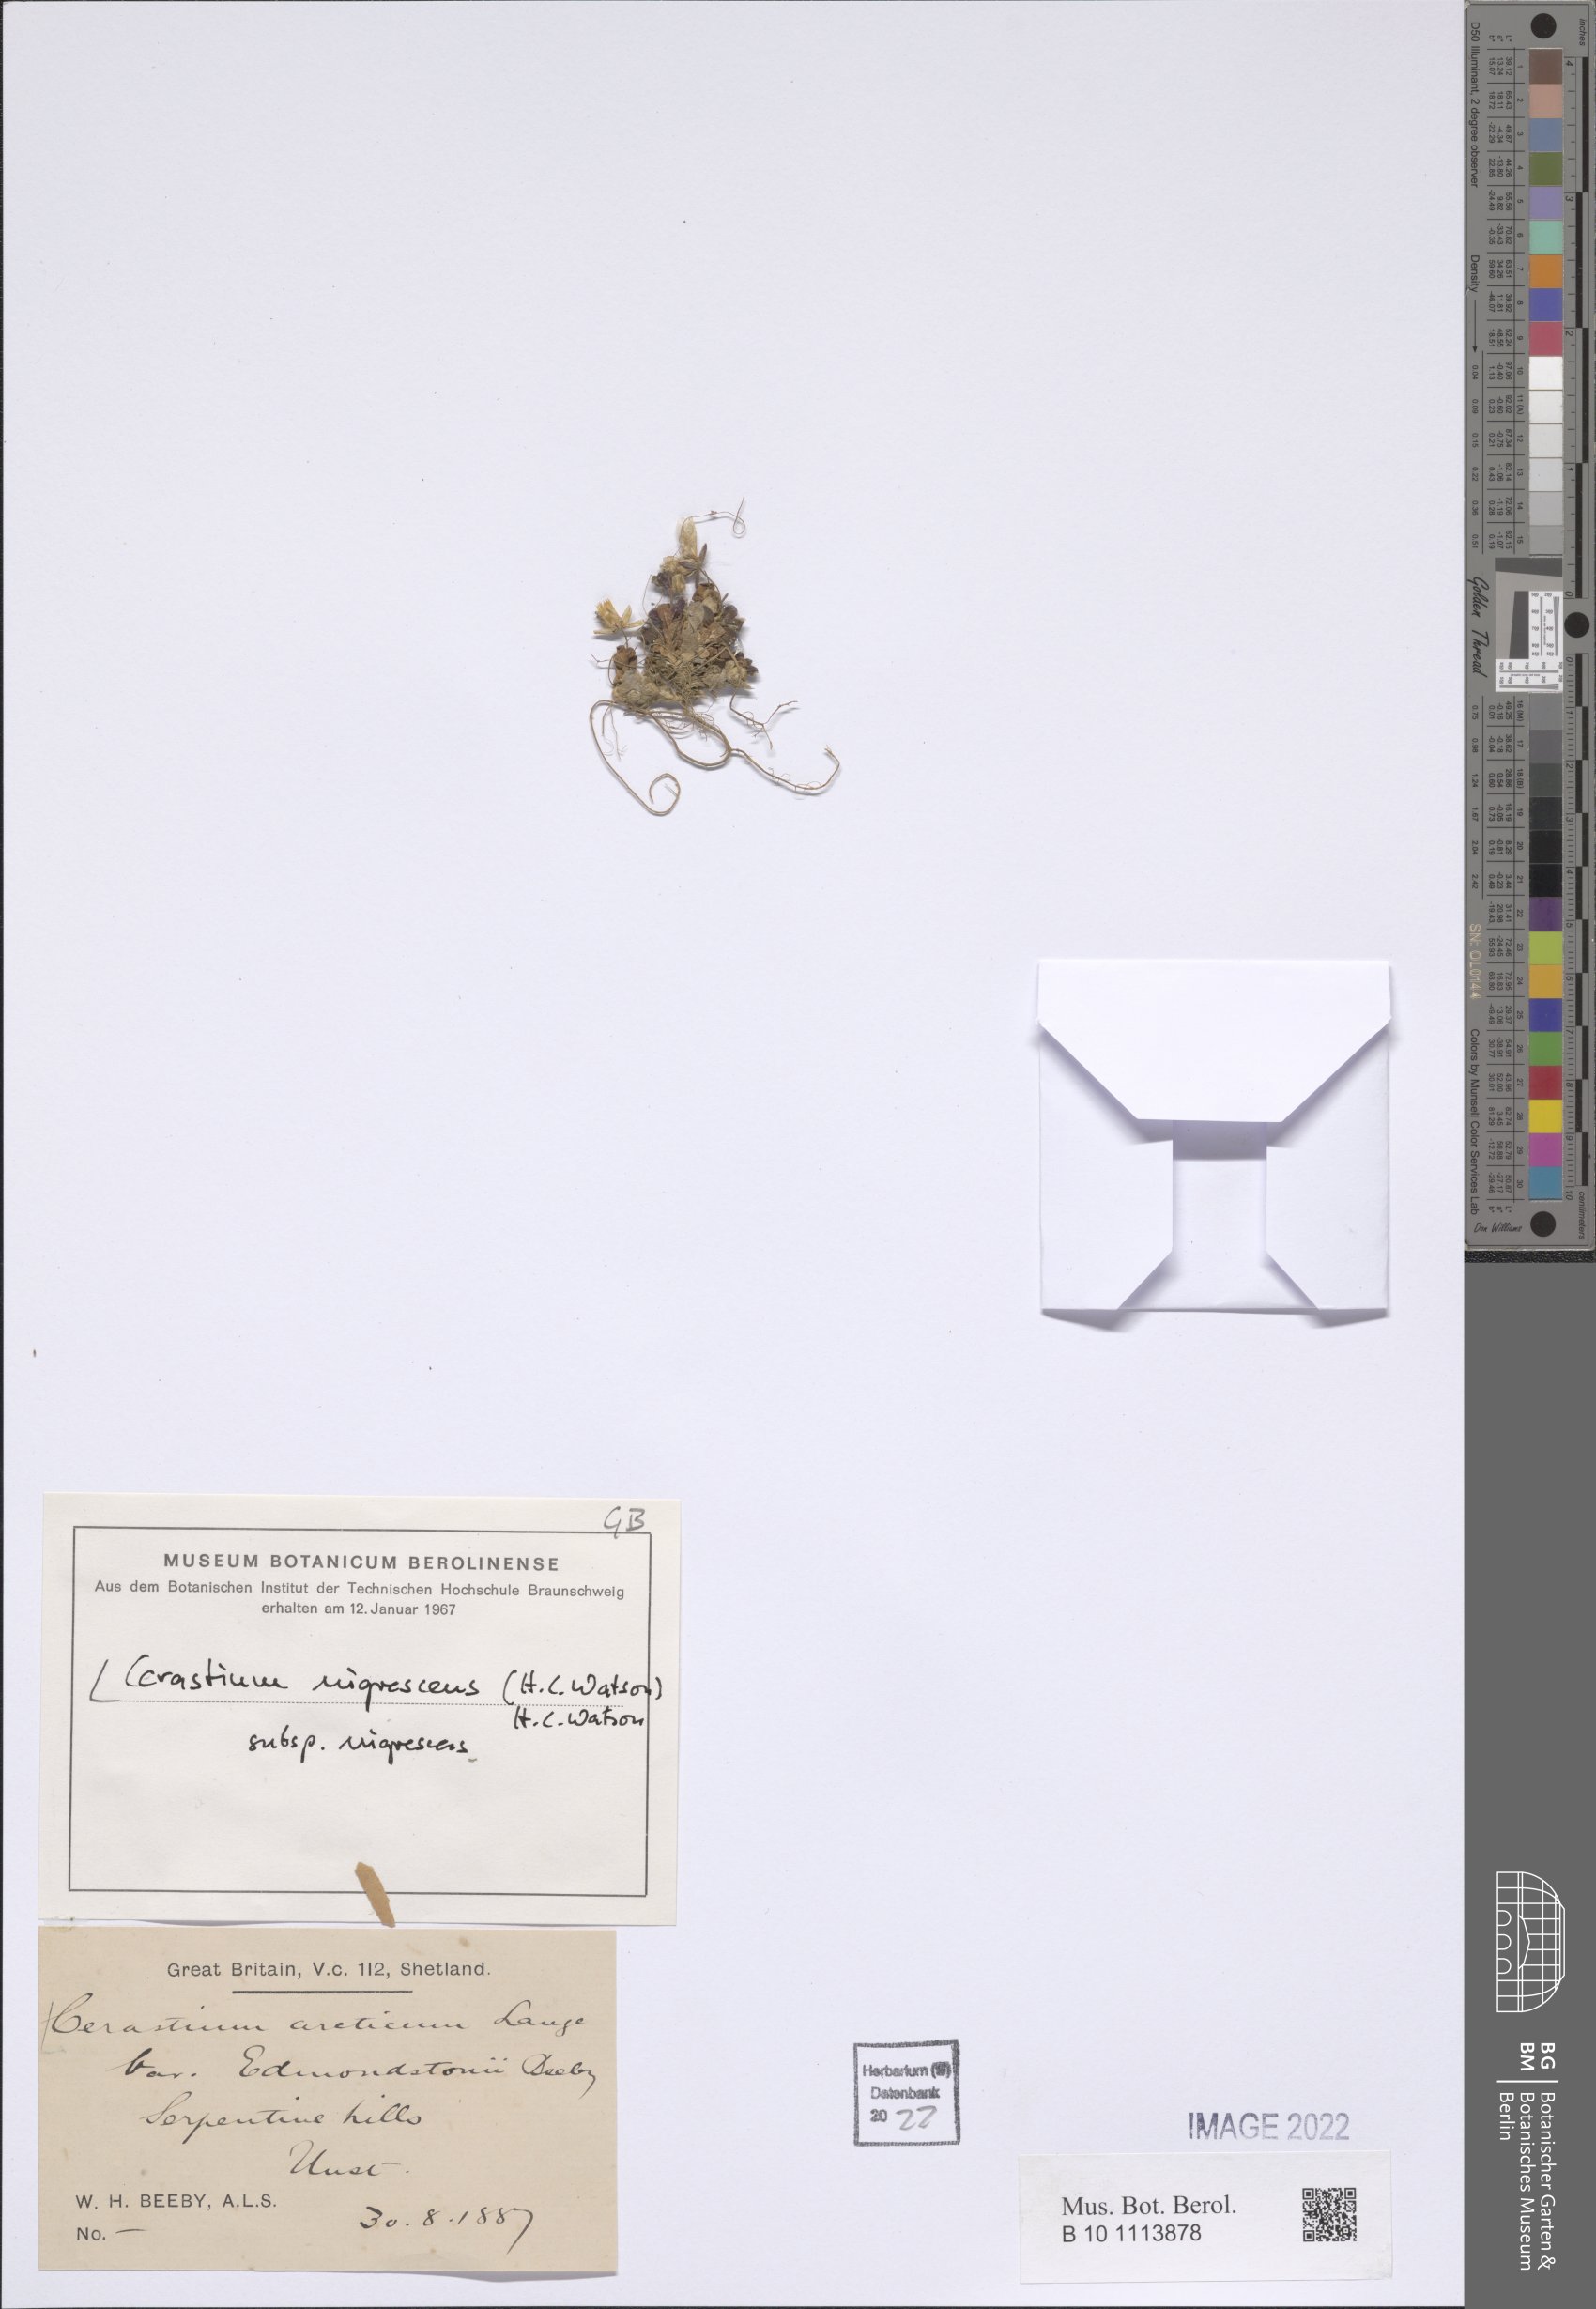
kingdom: Plantae
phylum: Tracheophyta
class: Magnoliopsida
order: Caryophyllales
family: Caryophyllaceae
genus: Cerastium
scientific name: Cerastium nigrescens
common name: Shetland mouse-ear
